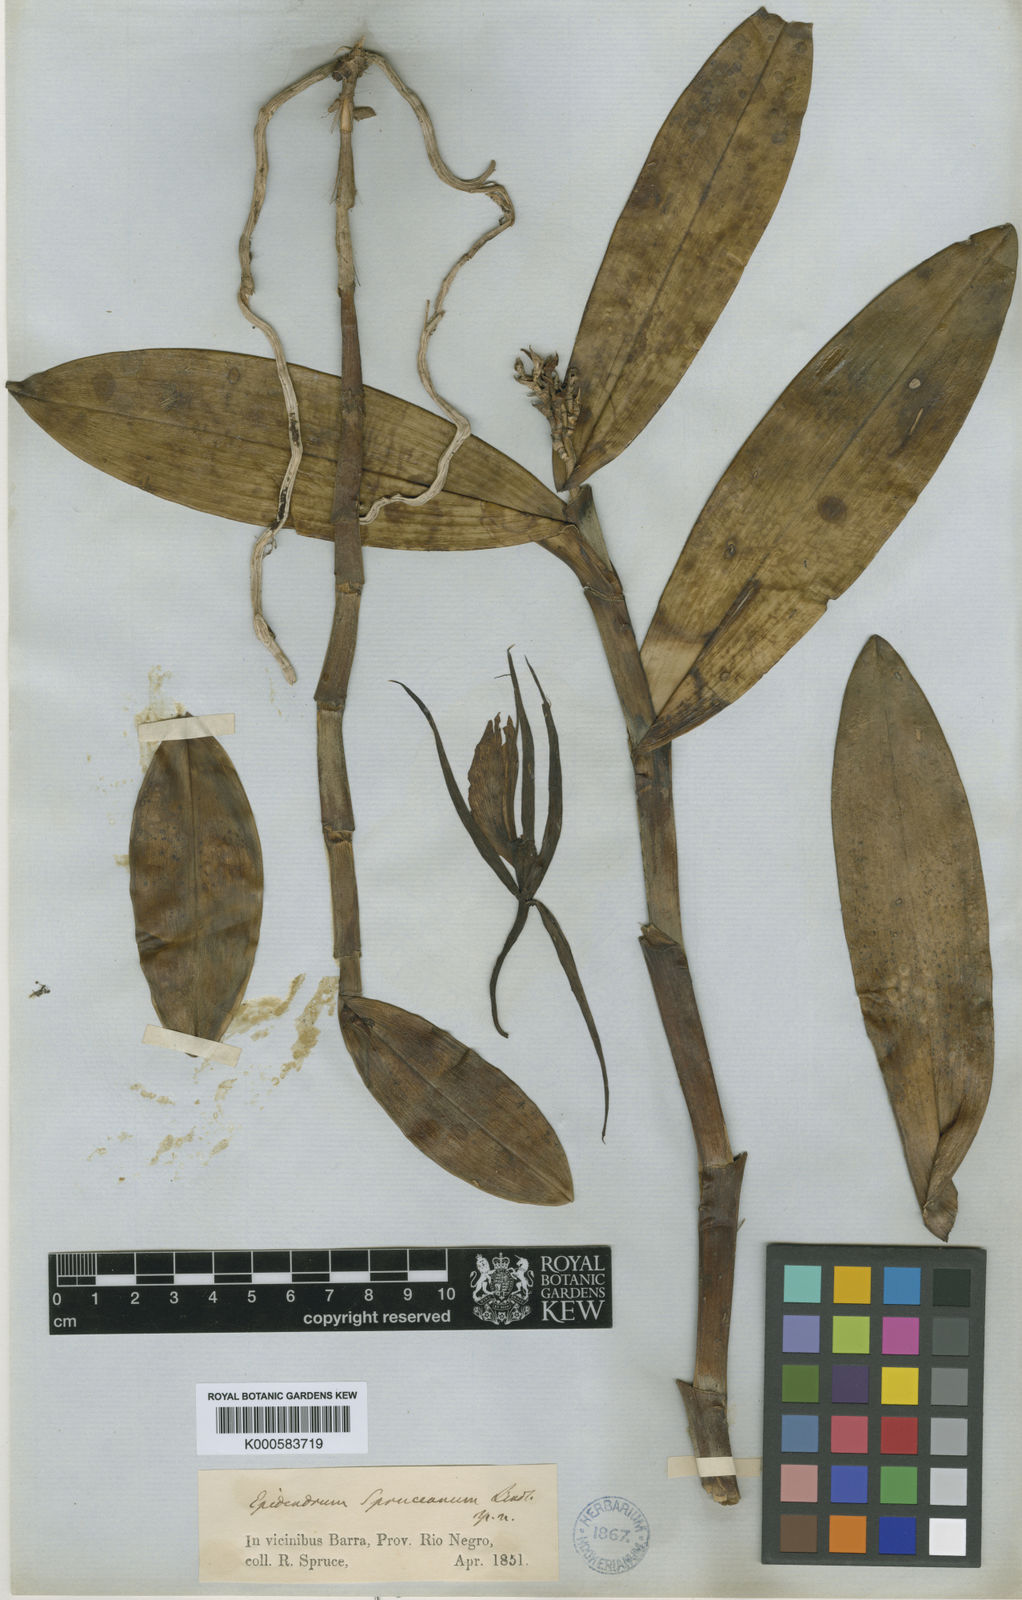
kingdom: Plantae
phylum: Tracheophyta
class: Liliopsida
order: Asparagales
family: Orchidaceae
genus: Epidendrum
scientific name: Epidendrum spruceanum
